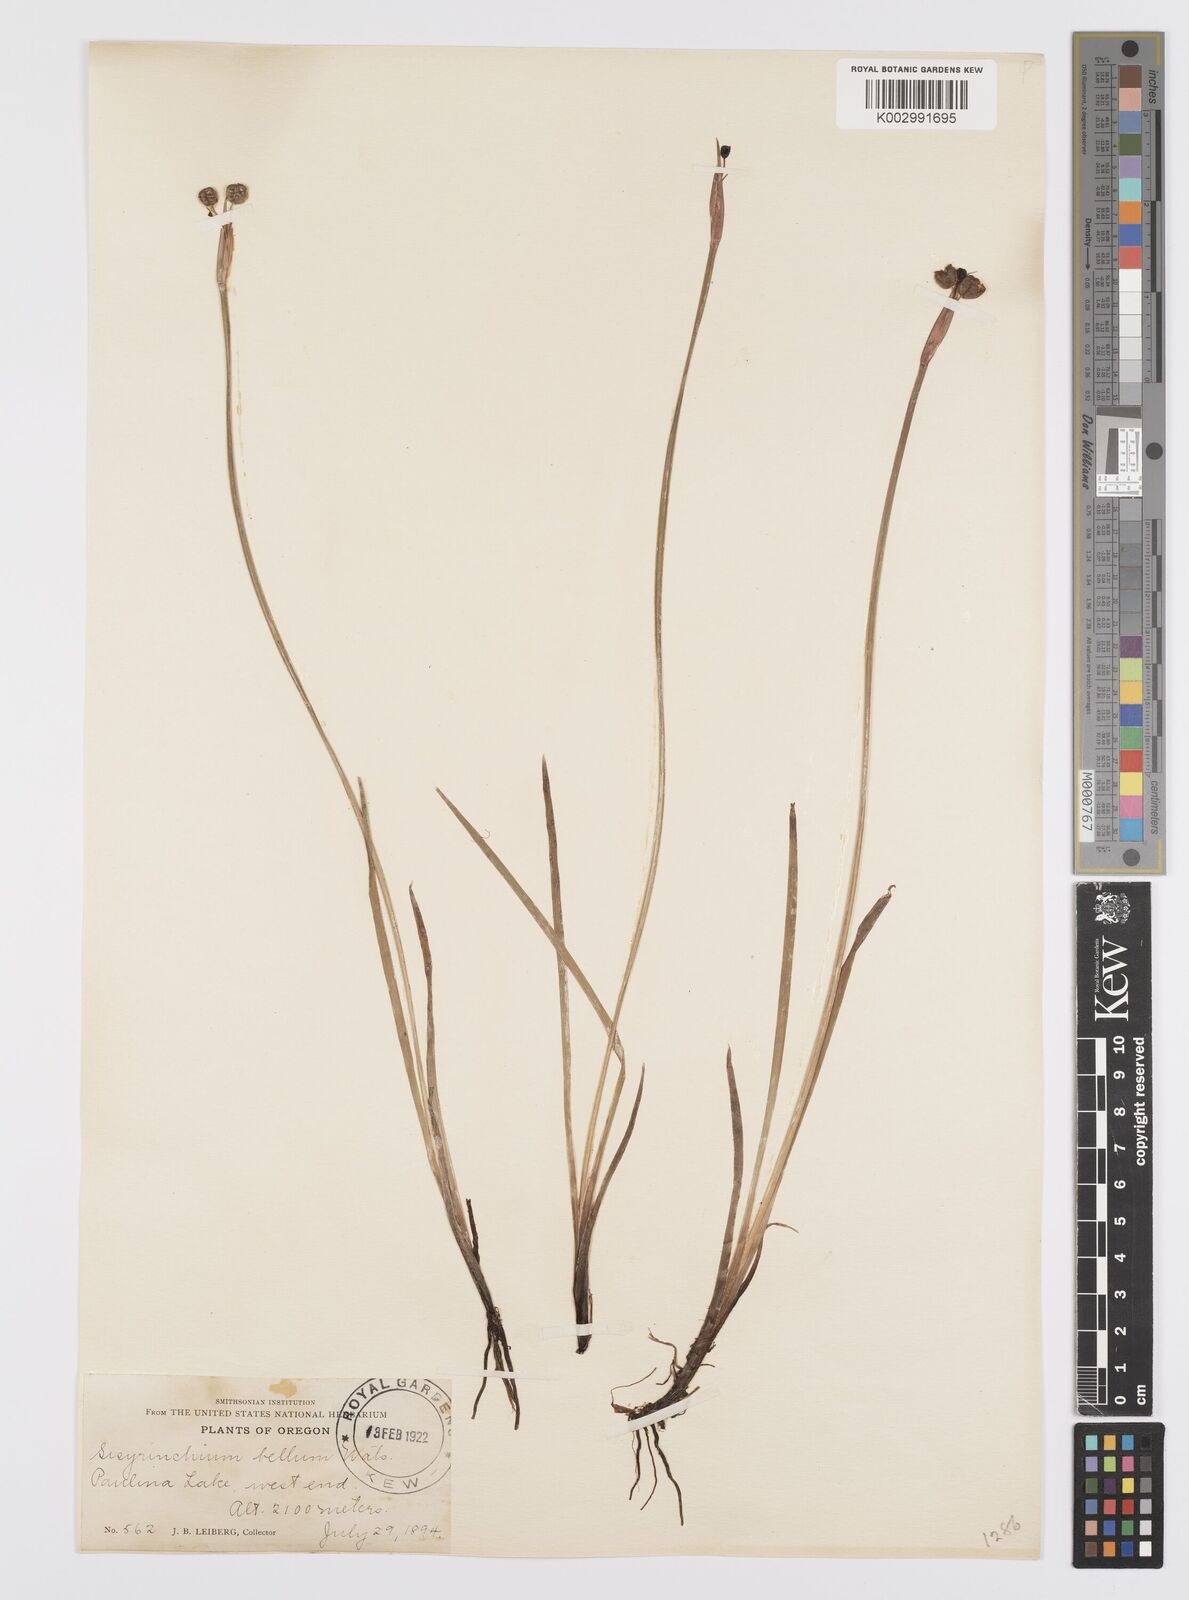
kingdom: Plantae
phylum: Tracheophyta
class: Liliopsida
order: Asparagales
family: Iridaceae
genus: Sisyrinchium
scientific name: Sisyrinchium bellum
